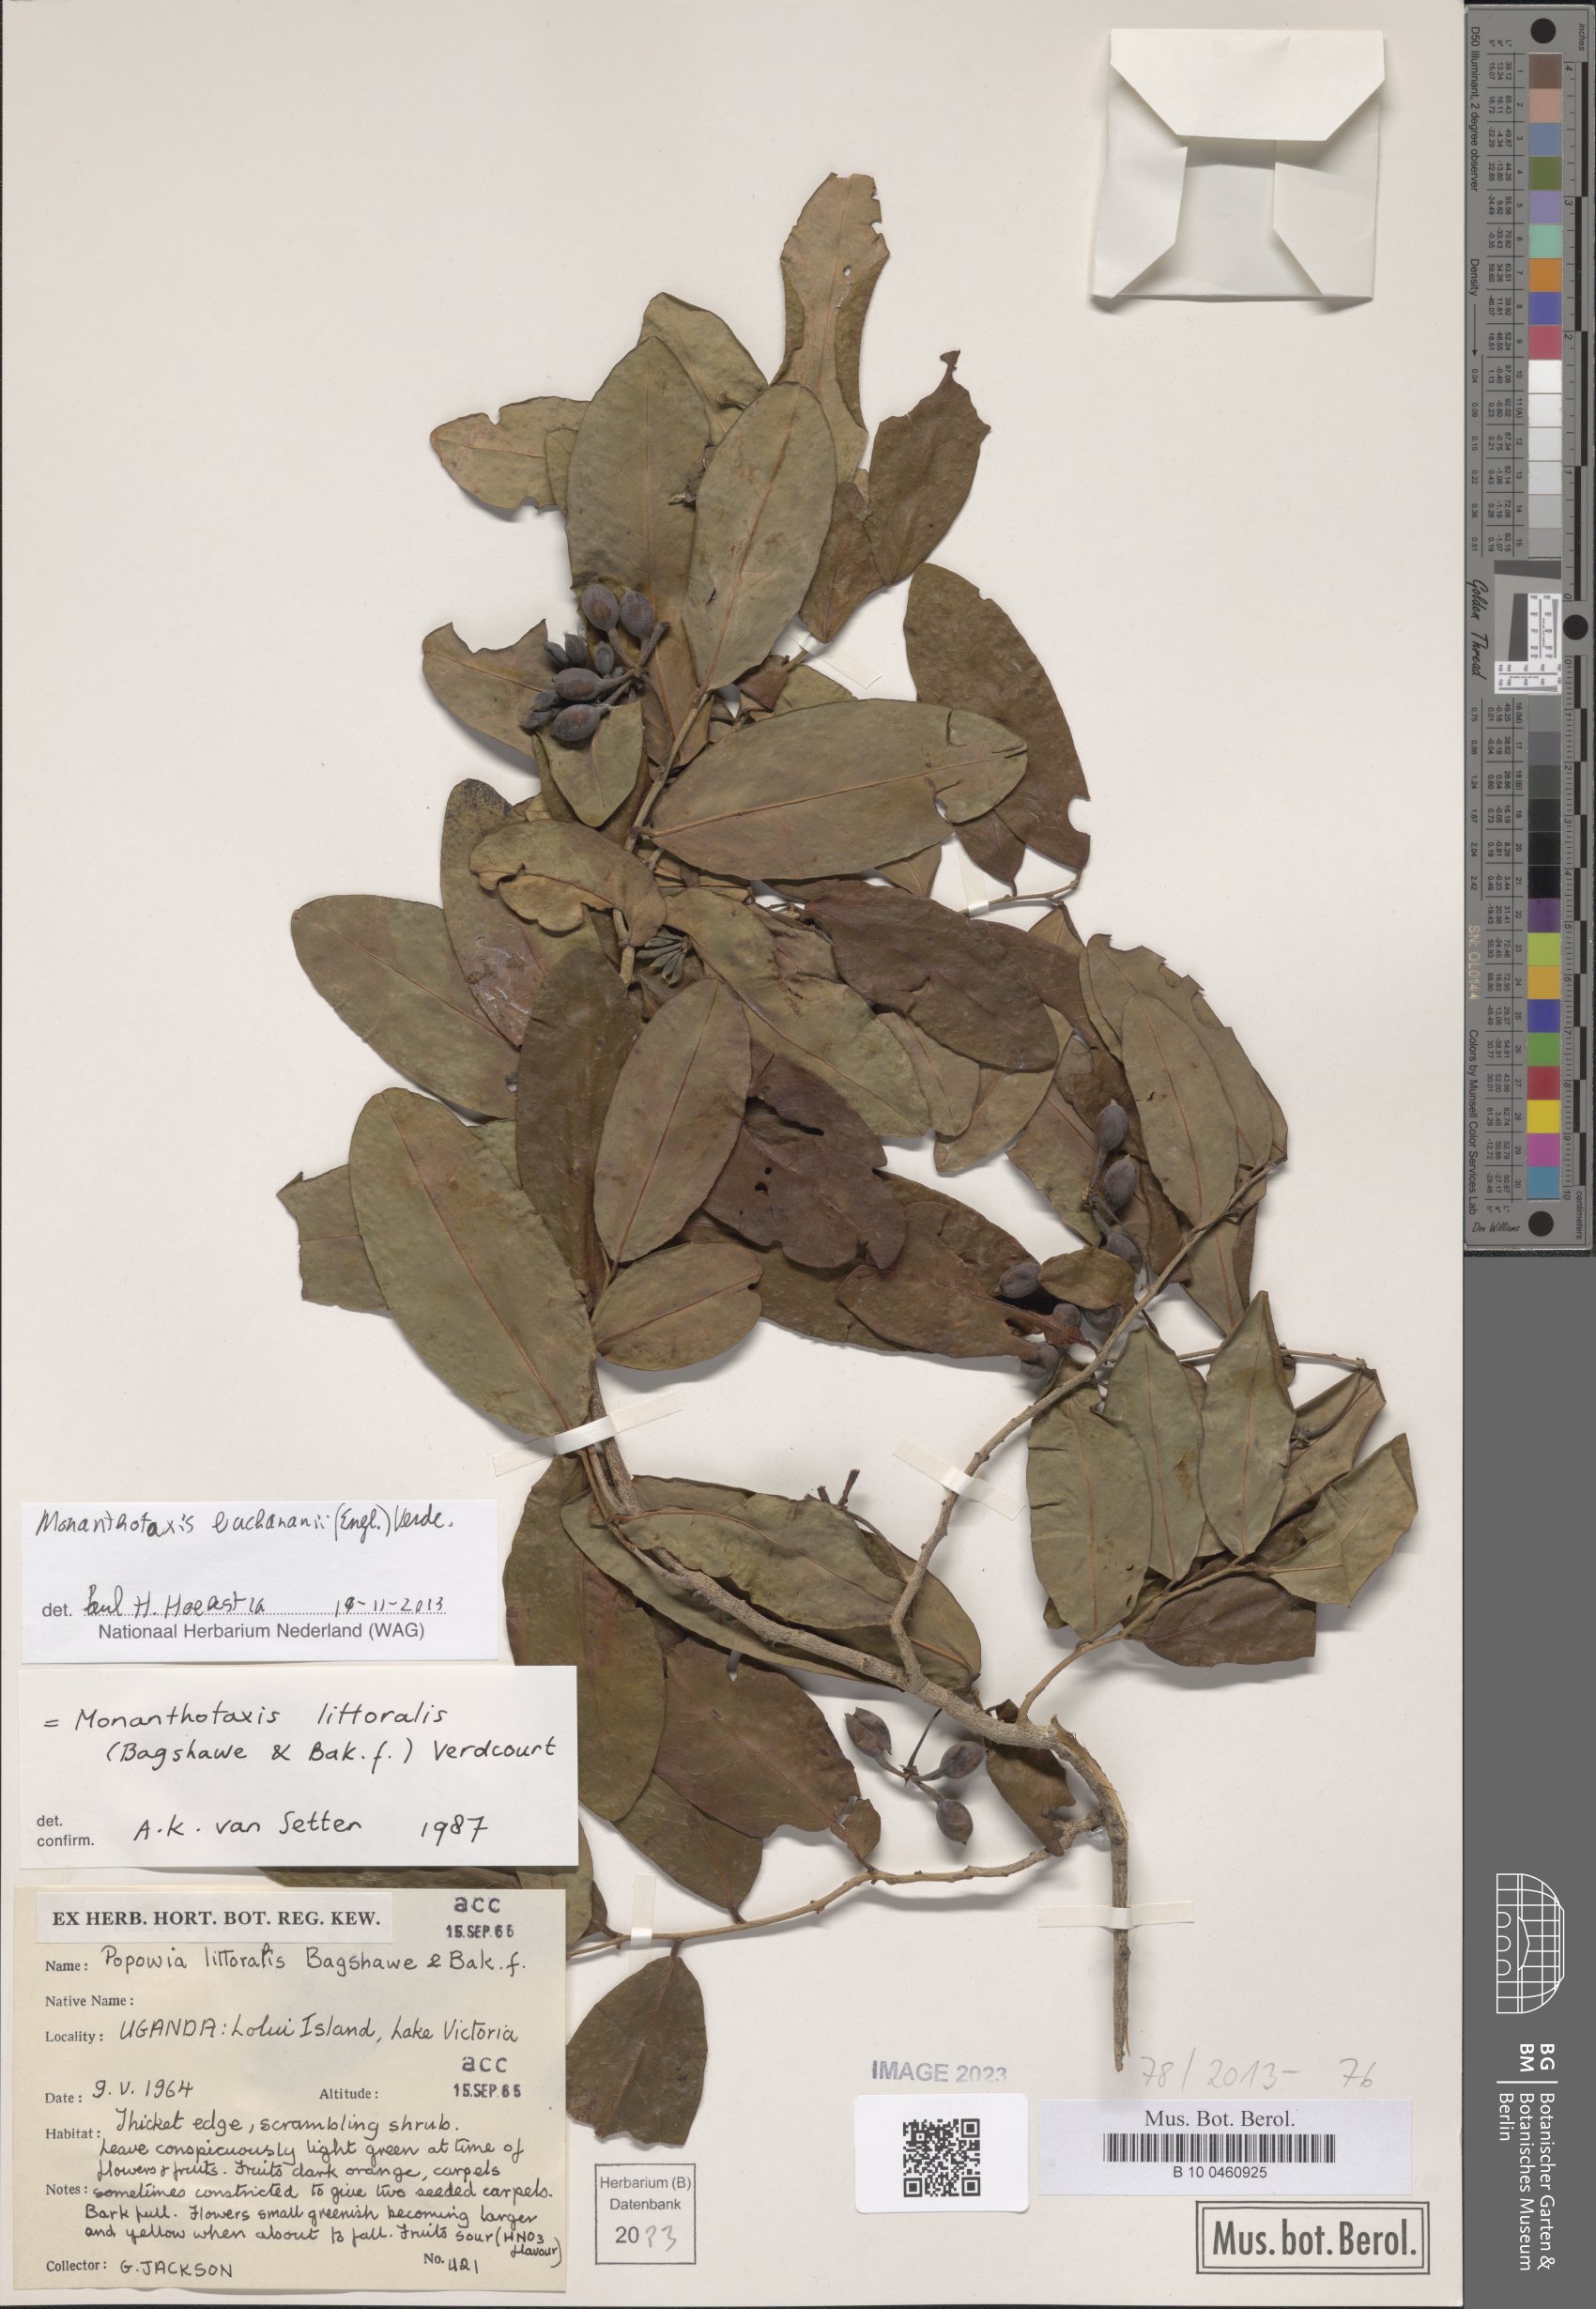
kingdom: Plantae
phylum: Tracheophyta
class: Magnoliopsida
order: Magnoliales
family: Annonaceae
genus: Monanthotaxis
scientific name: Monanthotaxis buchananii
